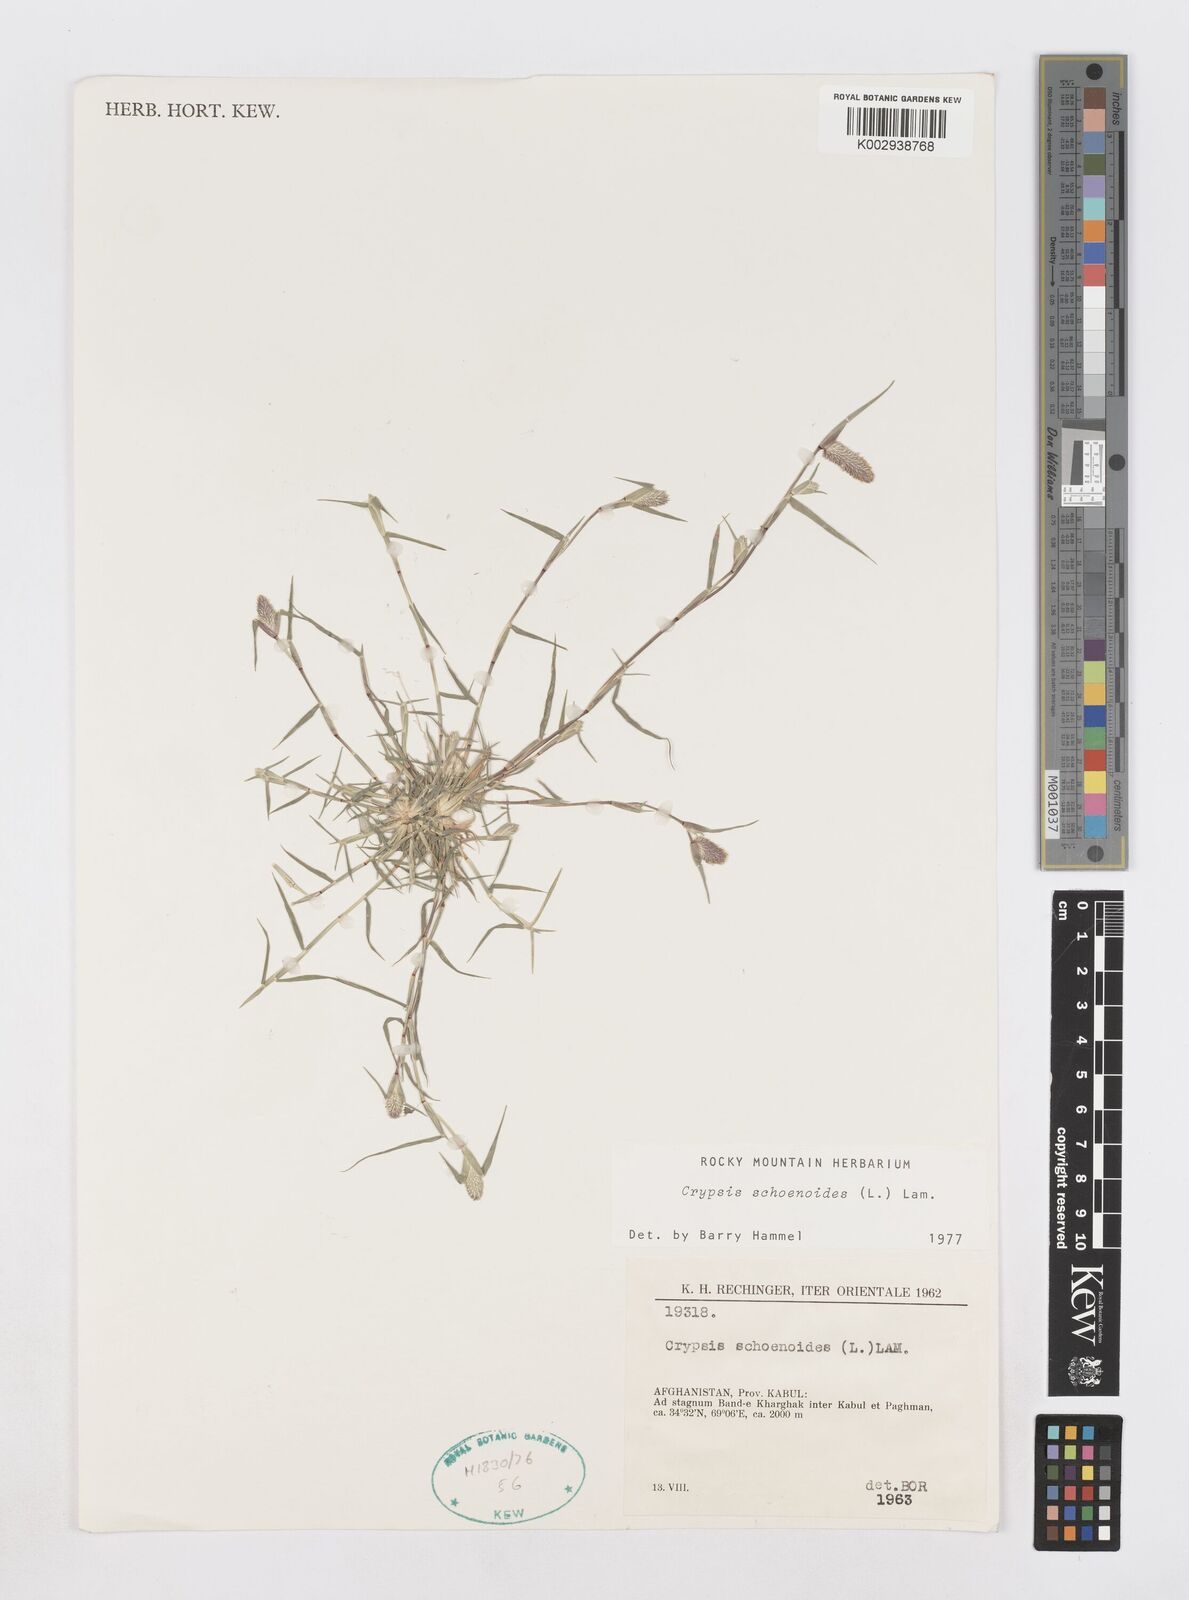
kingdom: Plantae
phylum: Tracheophyta
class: Liliopsida
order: Poales
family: Poaceae
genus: Sporobolus
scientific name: Sporobolus schoenoides
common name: Rush-like timothy
